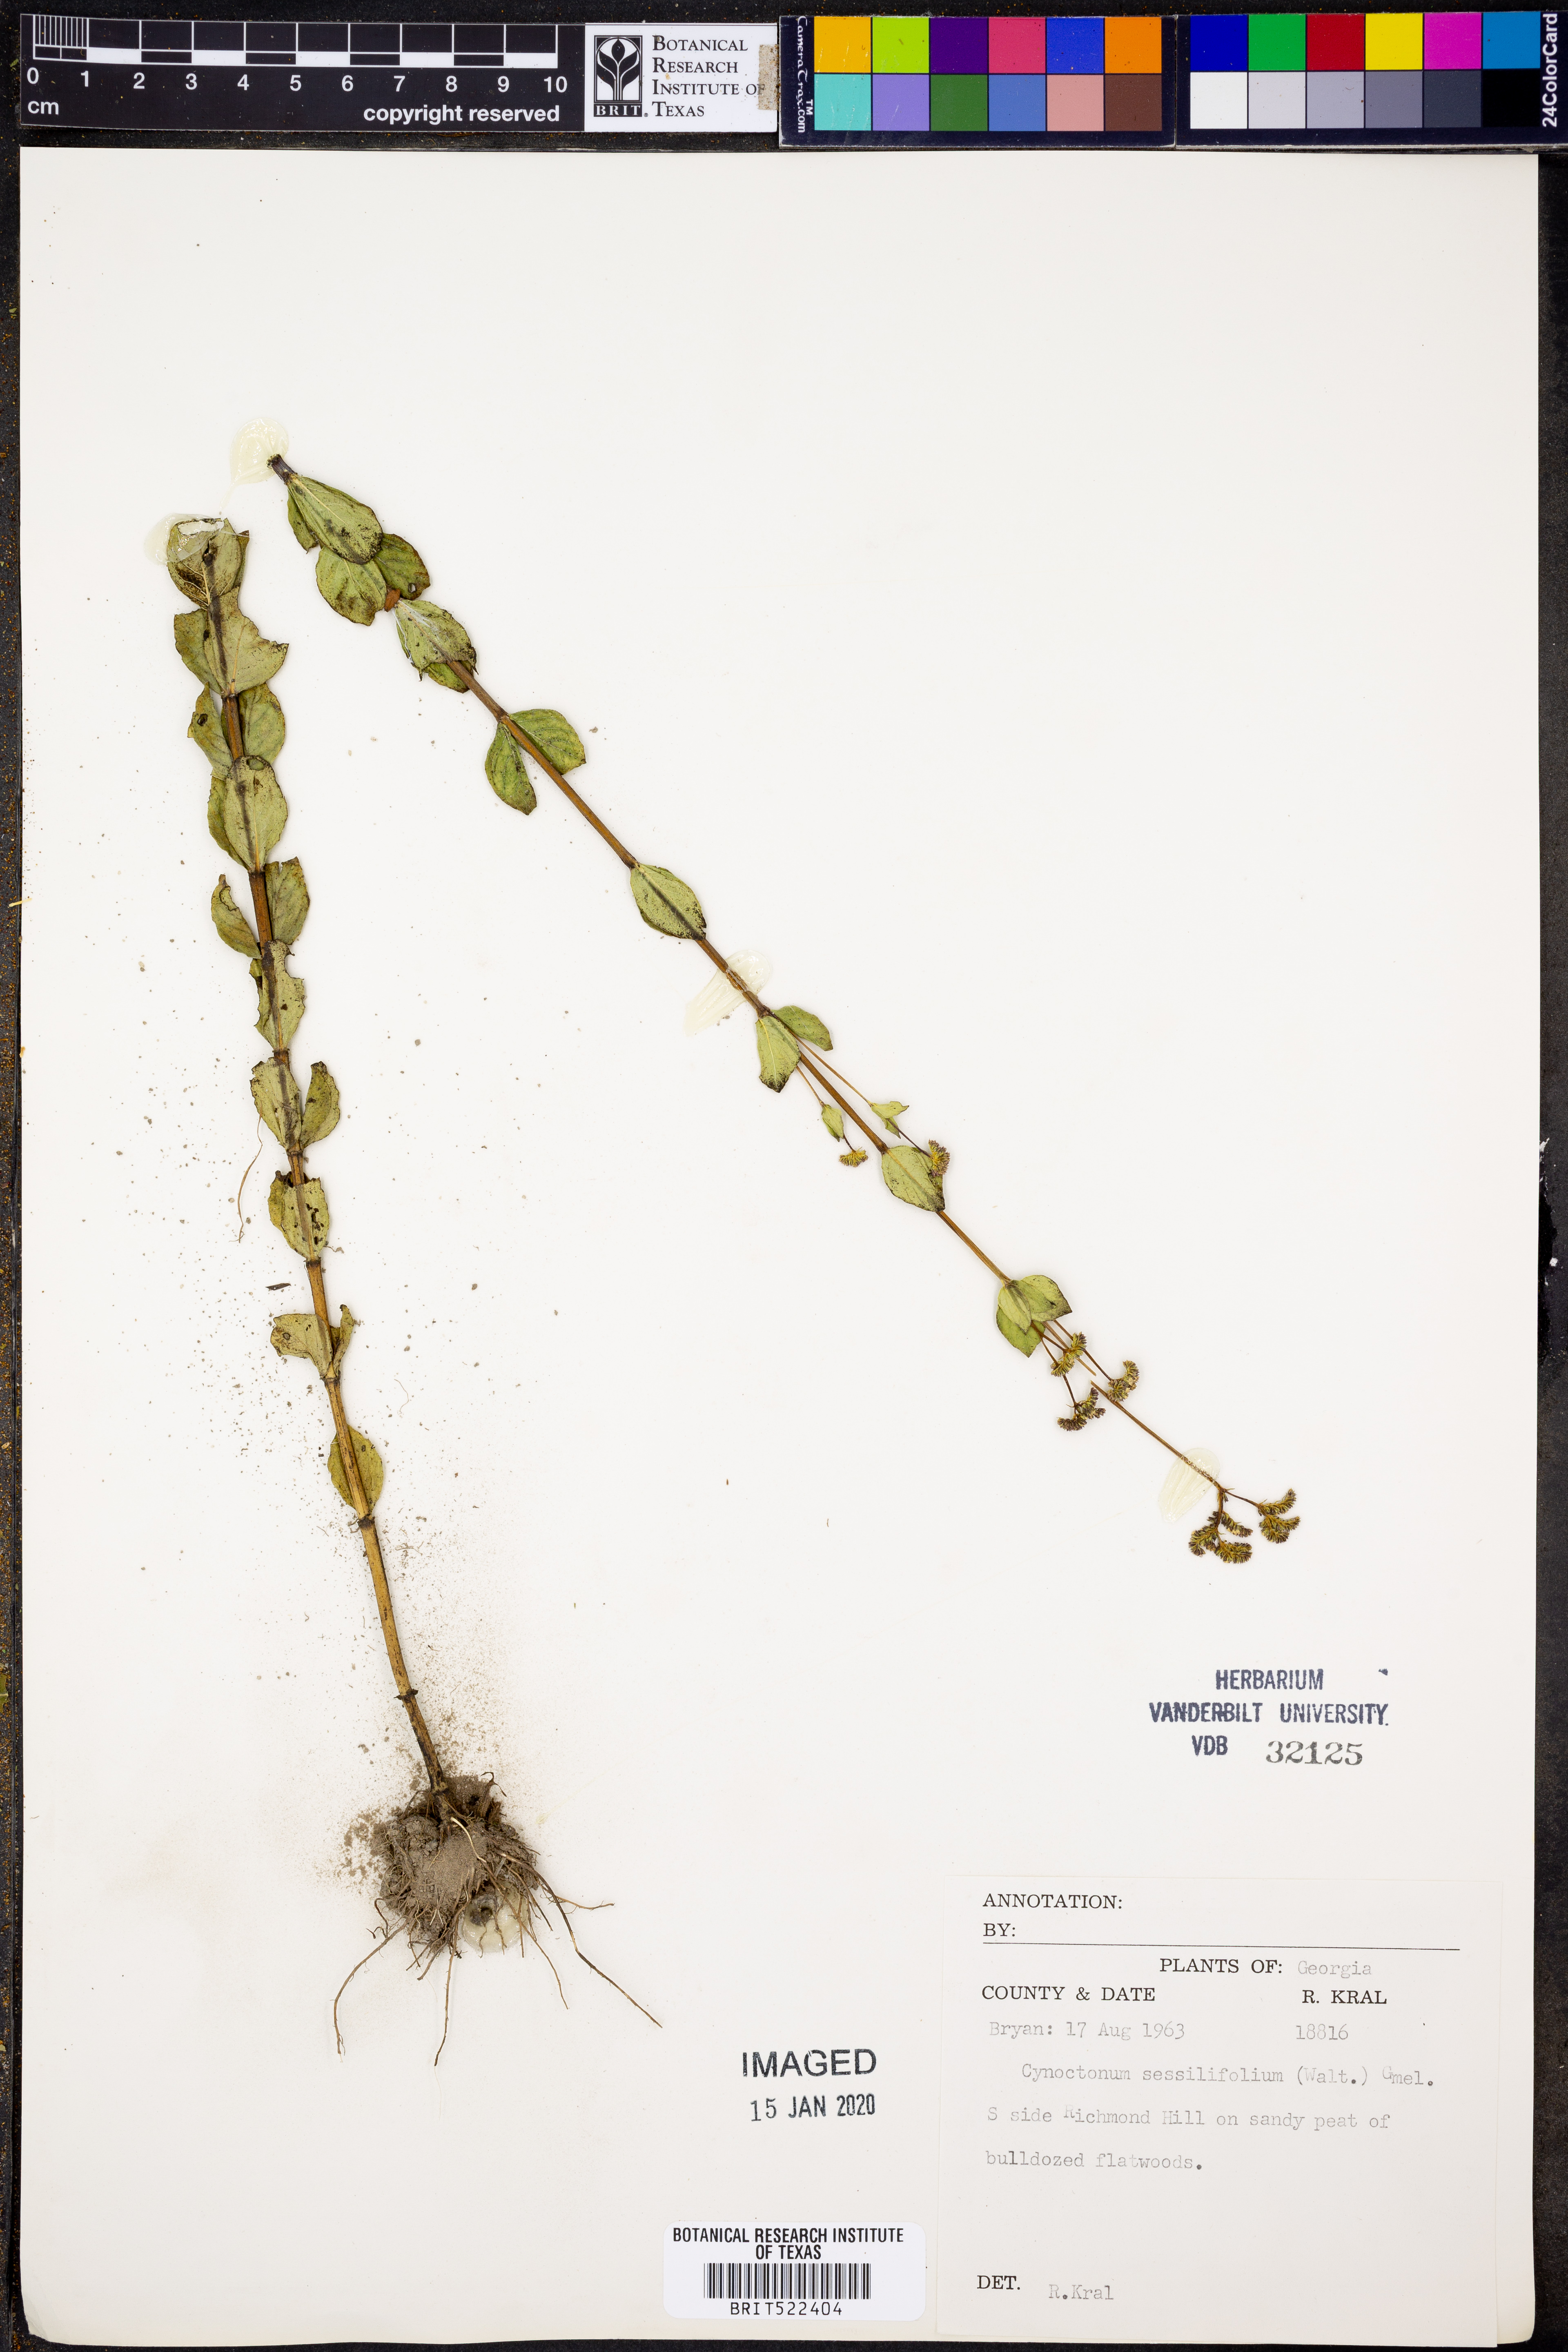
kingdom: Plantae
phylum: Tracheophyta
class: Magnoliopsida
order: Gentianales
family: Loganiaceae
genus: Mitreola
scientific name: Mitreola sessilifolia
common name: Swamp hornpod
